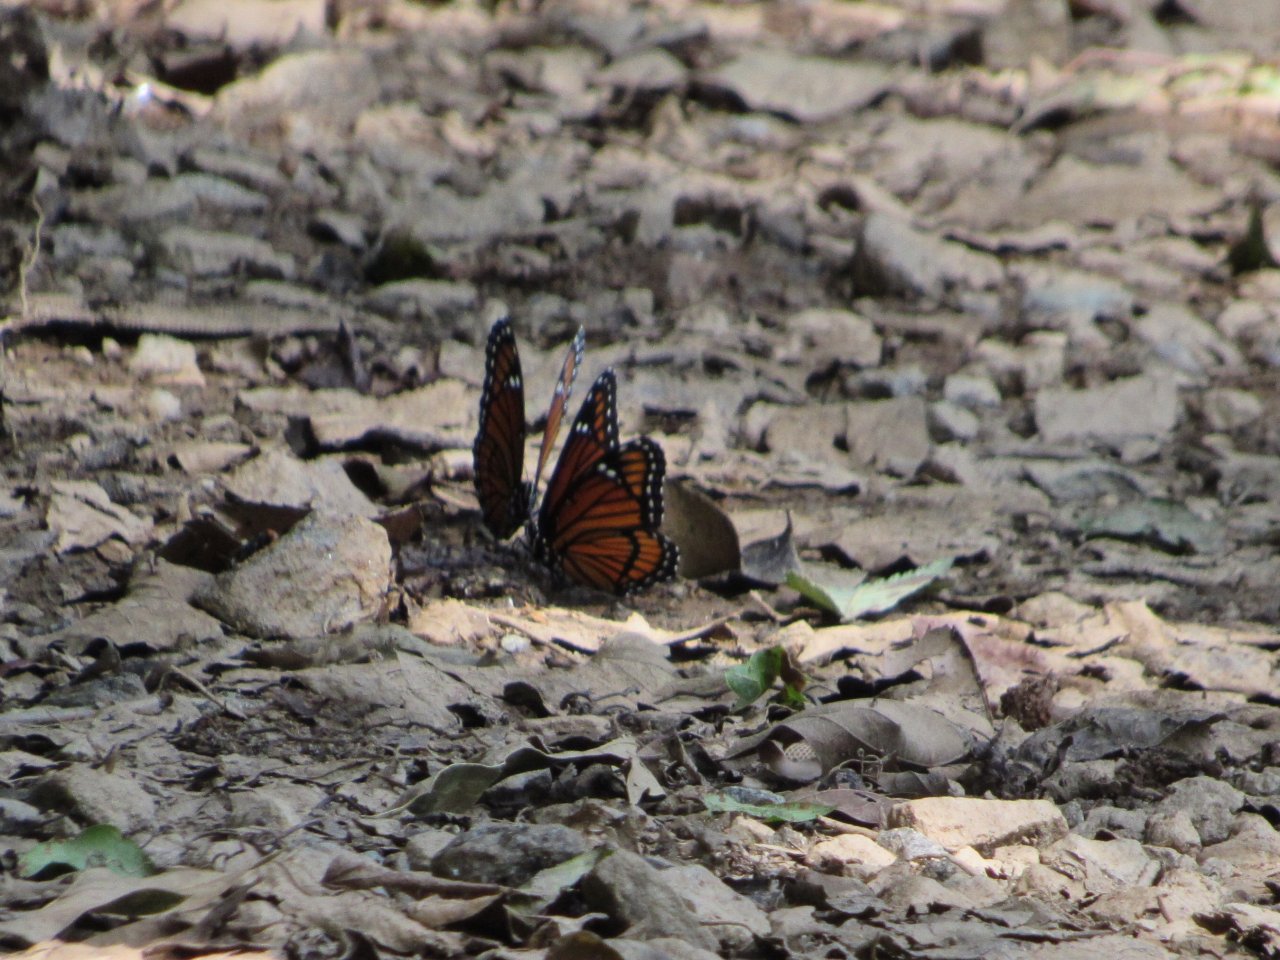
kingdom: Animalia
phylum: Arthropoda
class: Insecta
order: Lepidoptera
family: Nymphalidae
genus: Limenitis
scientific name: Limenitis archippus
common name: Viceroy
